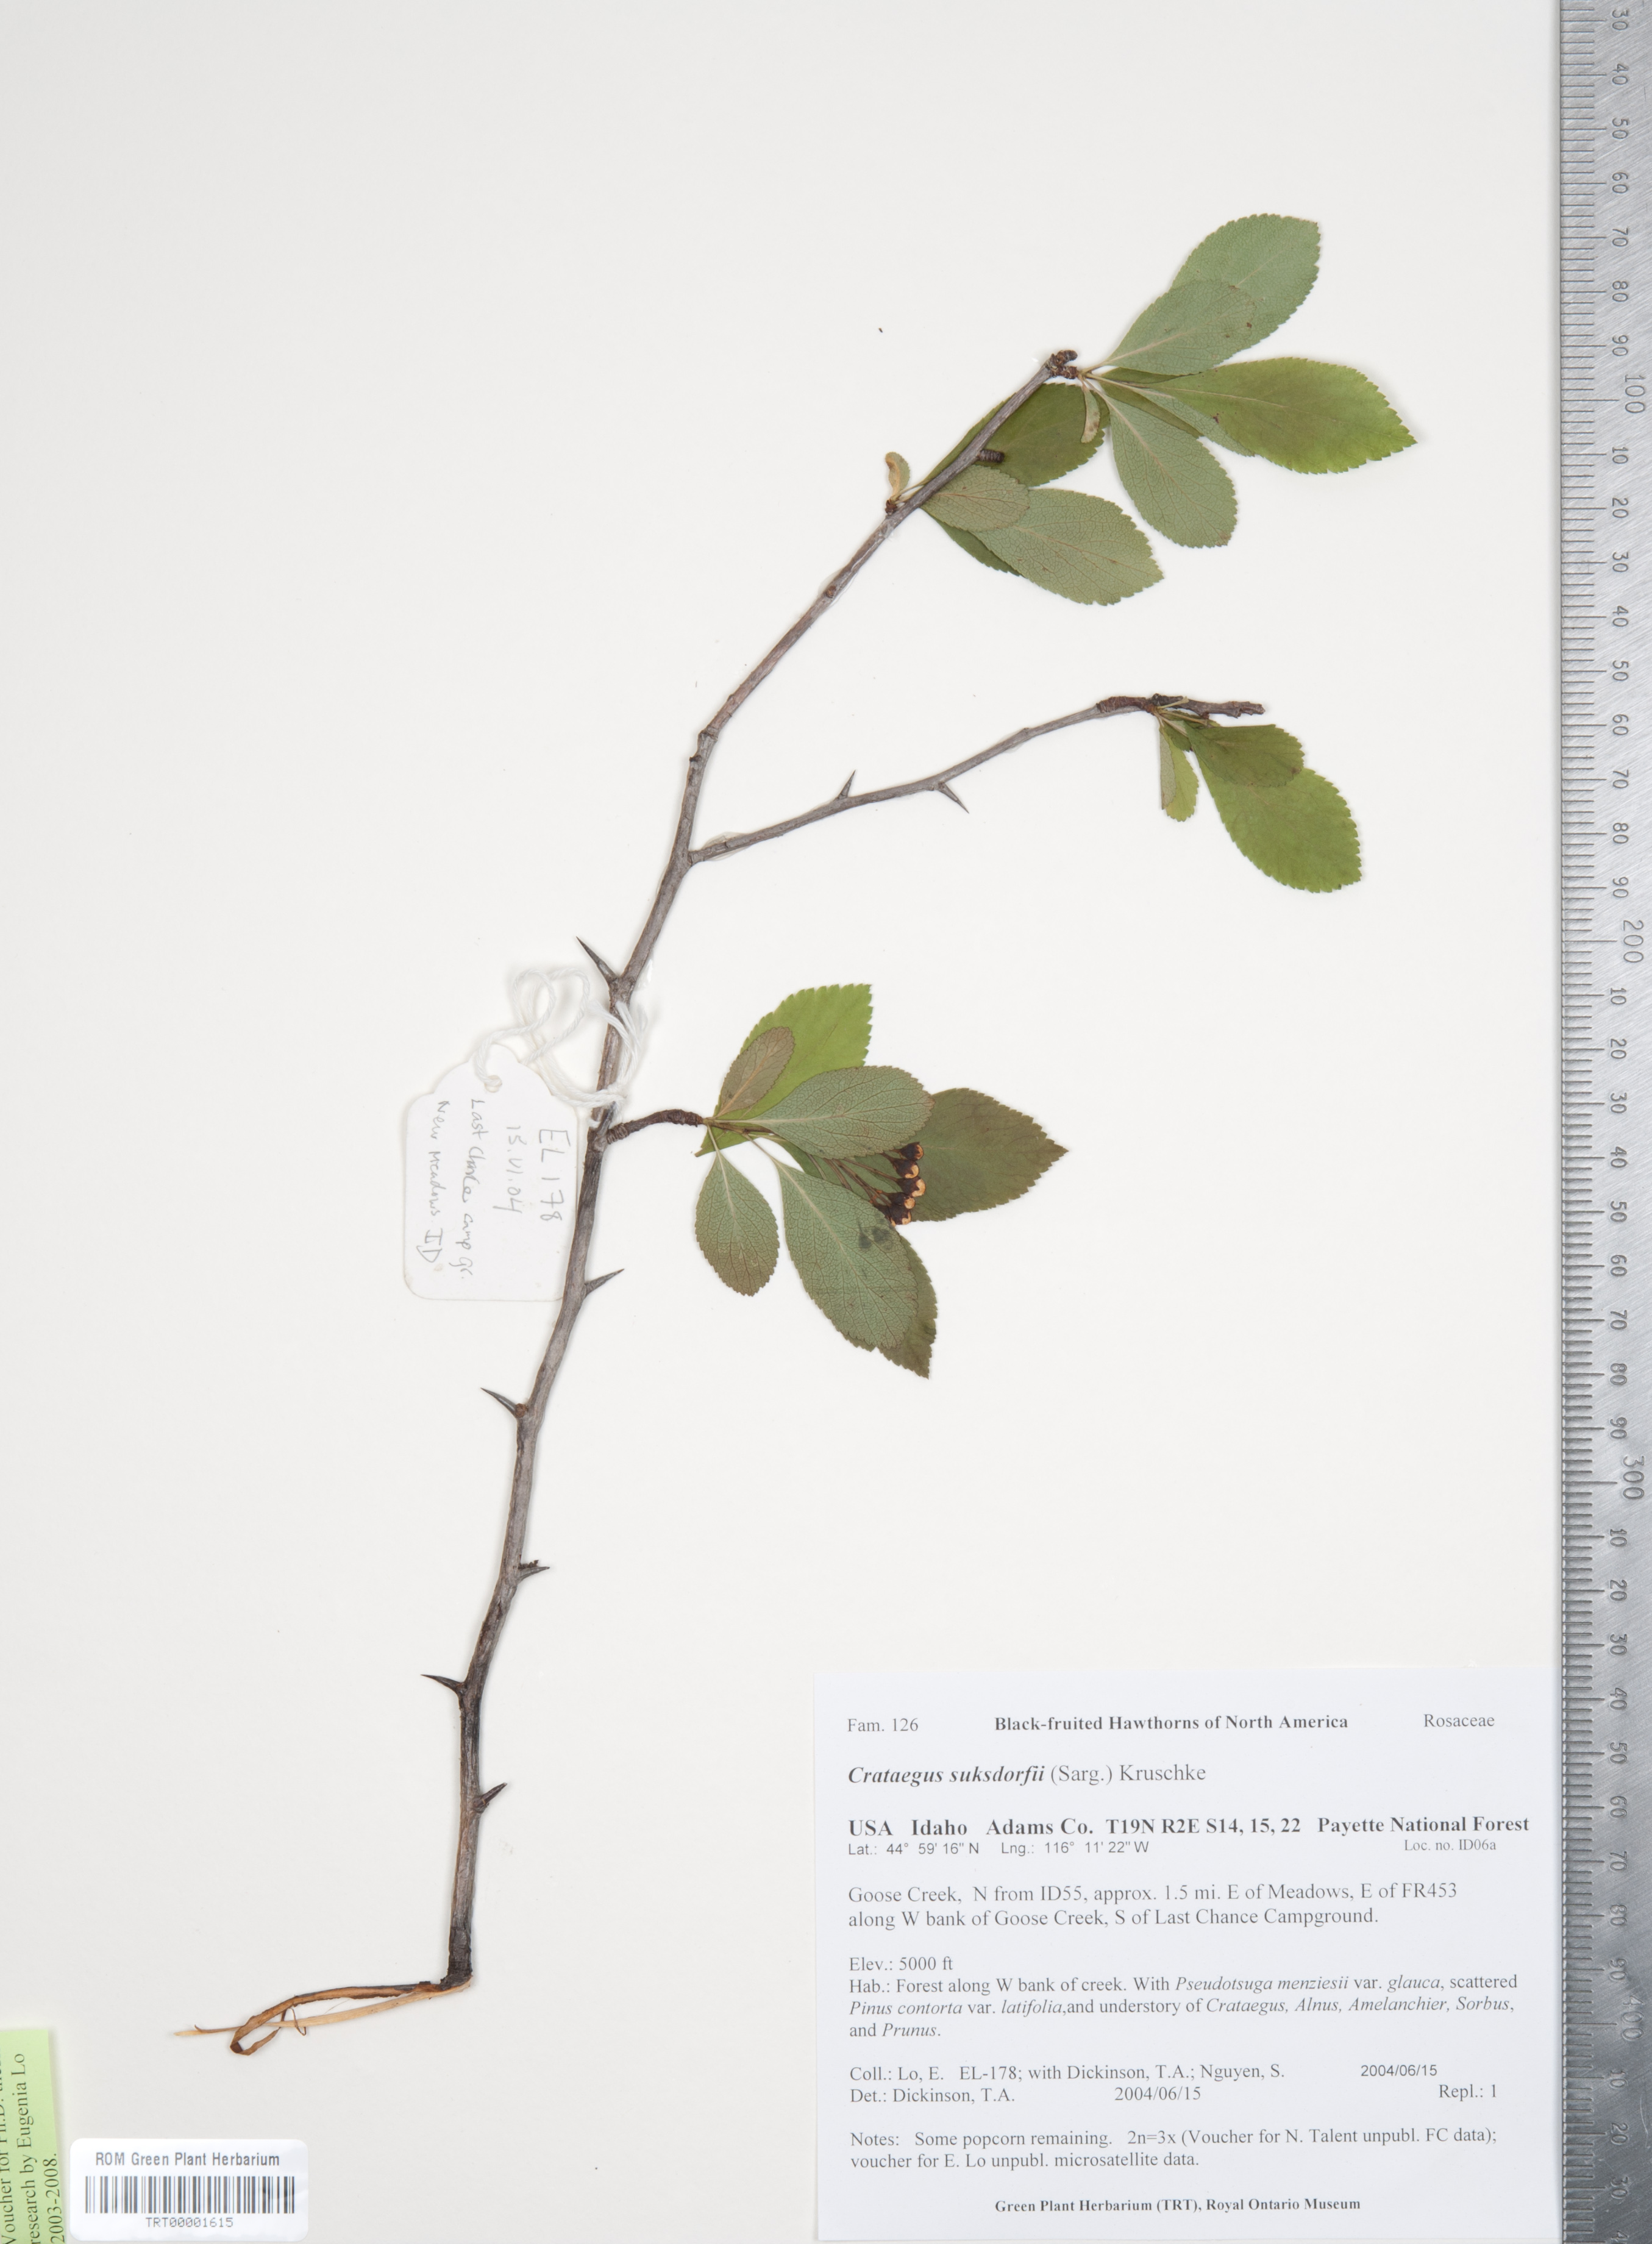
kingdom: Plantae
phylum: Tracheophyta
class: Magnoliopsida
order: Rosales
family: Rosaceae
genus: Crataegus
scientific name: Crataegus gaylussacia
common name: Huckleberry hawthorn
